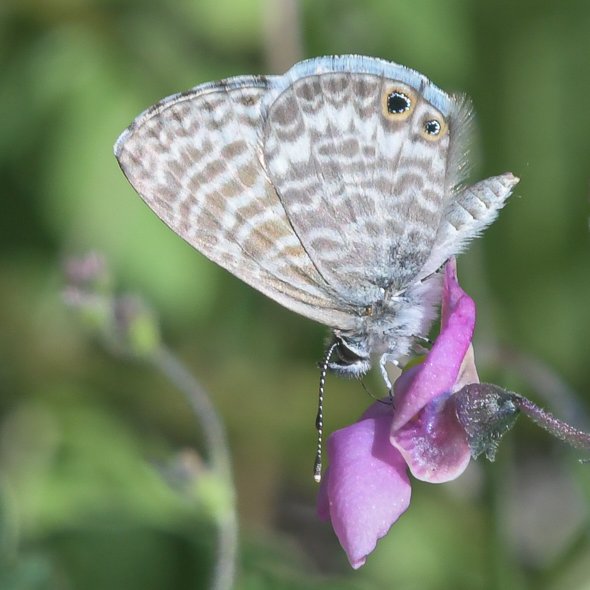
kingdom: Animalia
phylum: Arthropoda
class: Insecta
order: Lepidoptera
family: Lycaenidae
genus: Leptotes
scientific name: Leptotes marina
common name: Marine Blue
